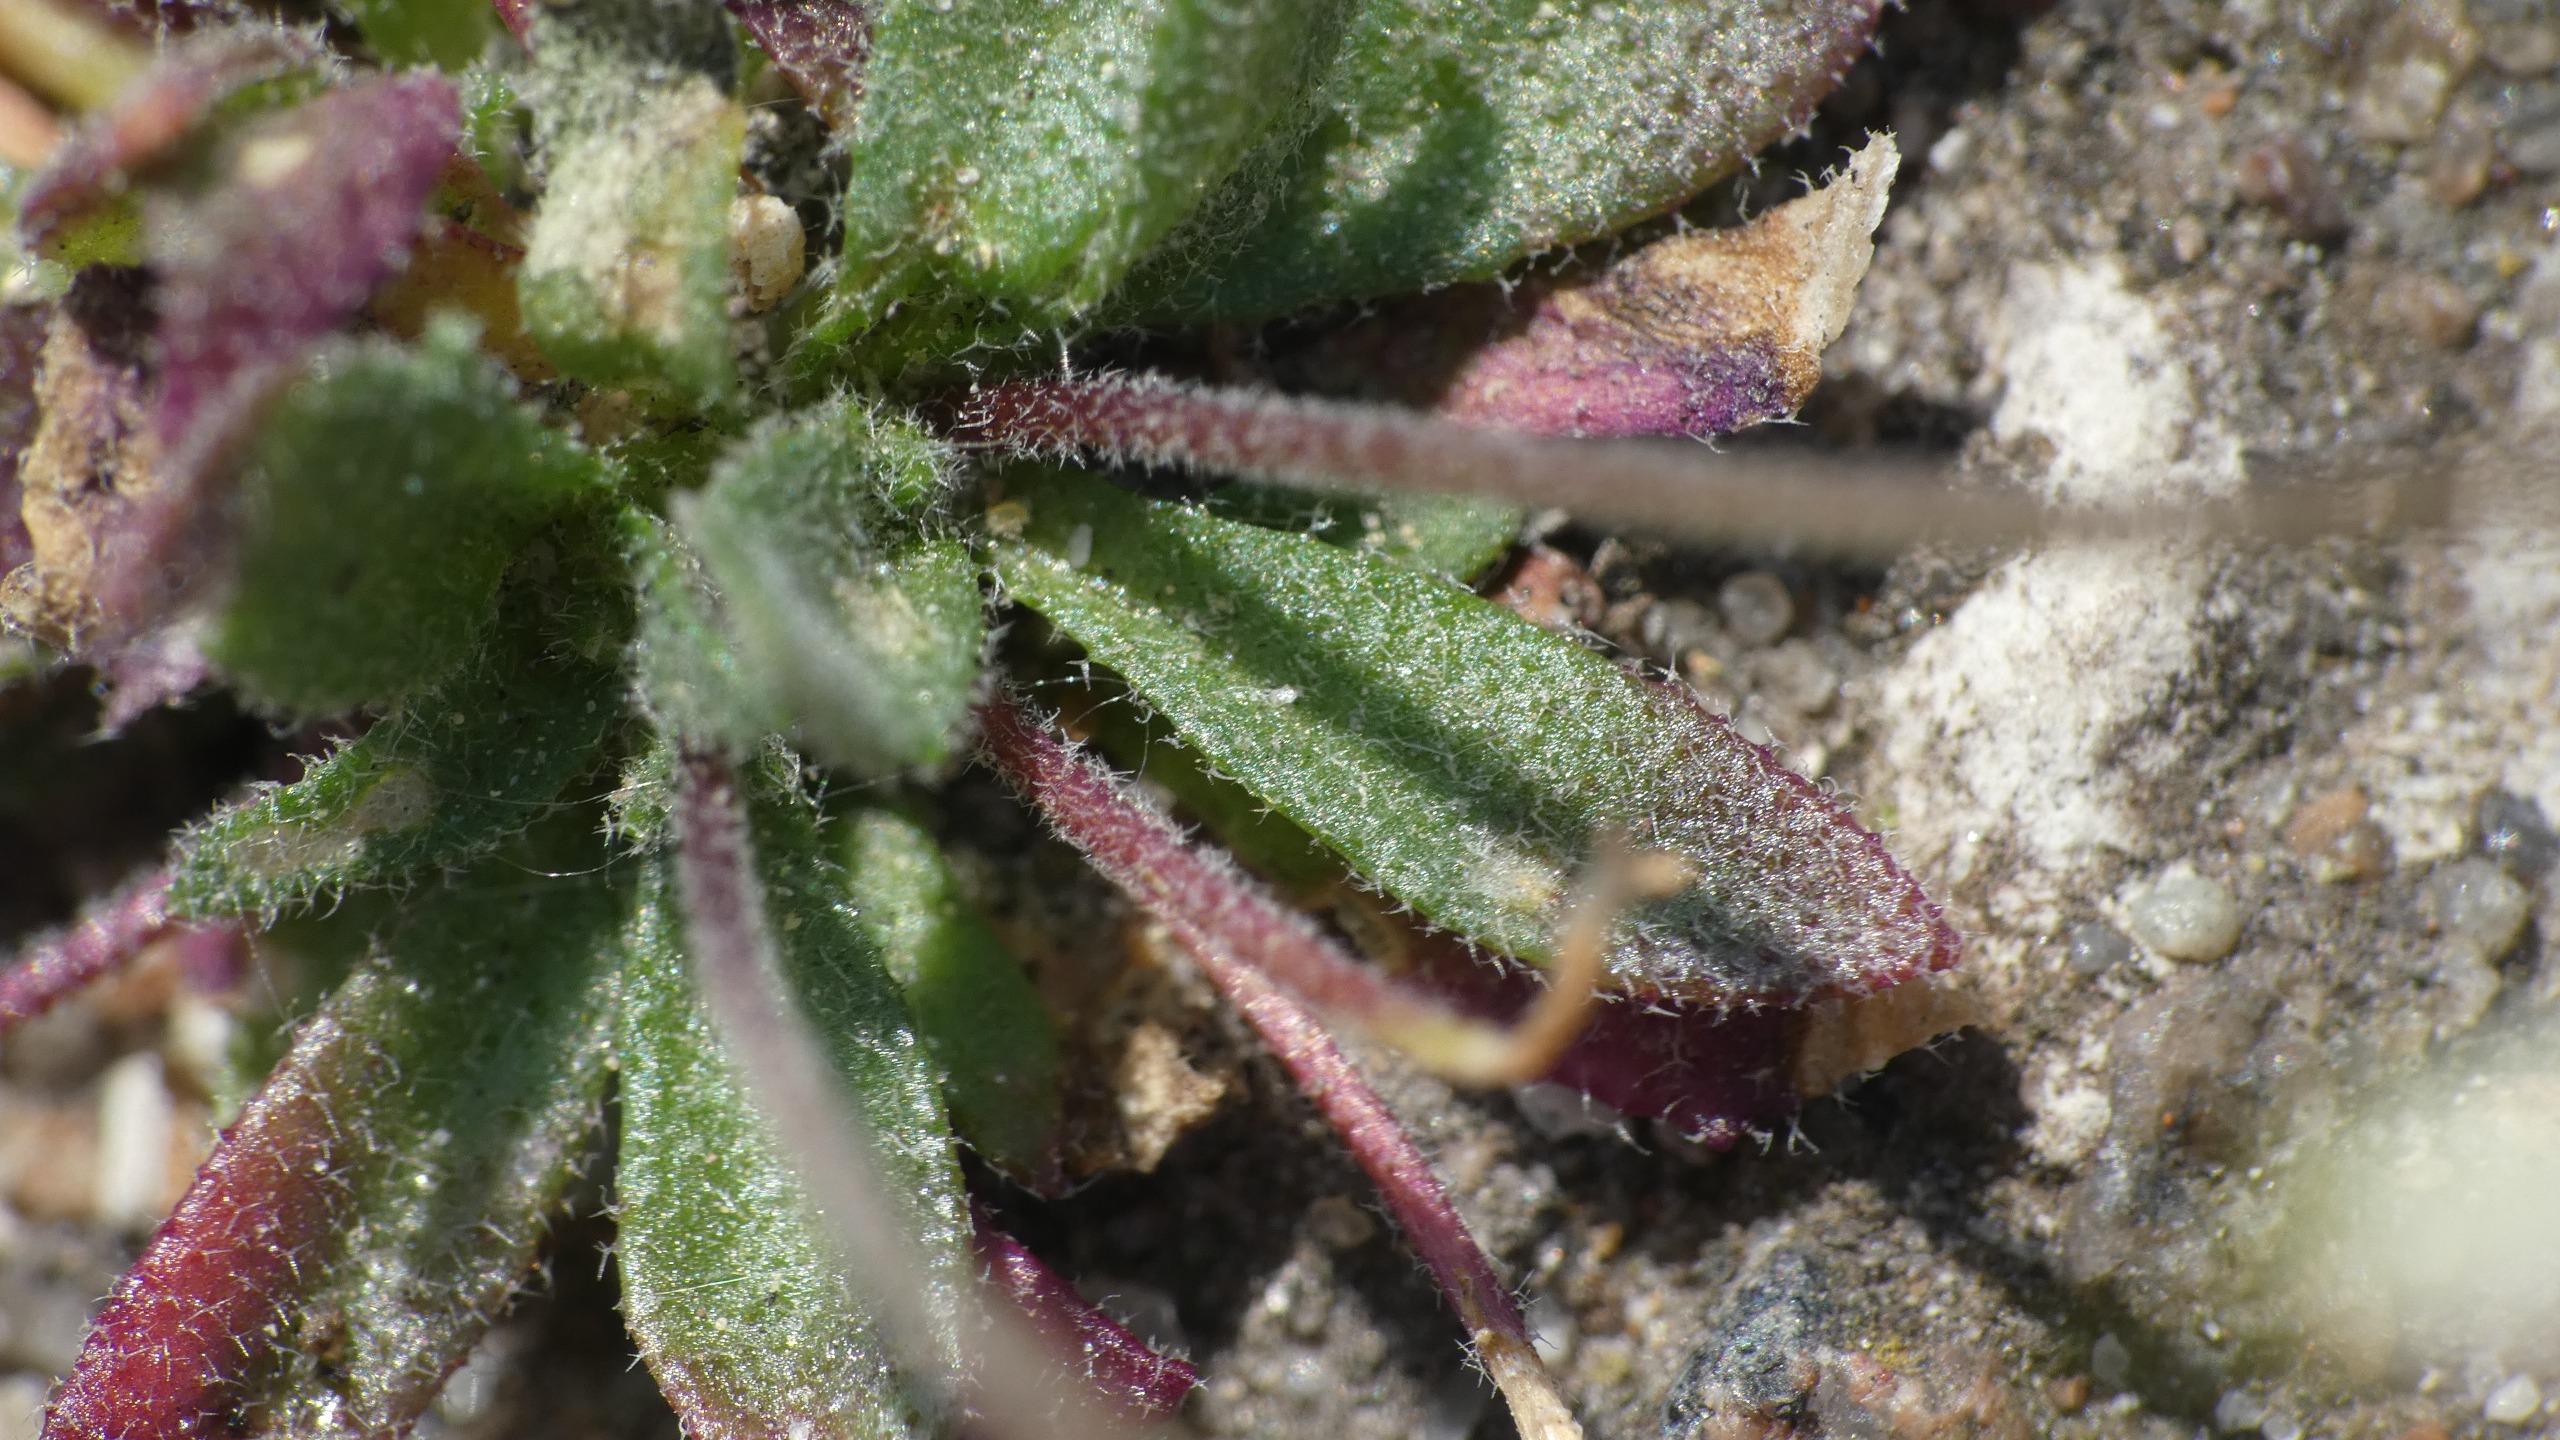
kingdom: Plantae
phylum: Tracheophyta
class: Magnoliopsida
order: Brassicales
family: Brassicaceae
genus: Draba
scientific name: Draba verna
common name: Vår-gæslingeblomst
